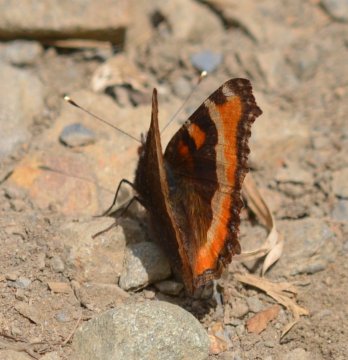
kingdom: Animalia
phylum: Arthropoda
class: Insecta
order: Lepidoptera
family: Nymphalidae
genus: Aglais
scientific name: Aglais milberti
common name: Milbert's Tortoiseshell
